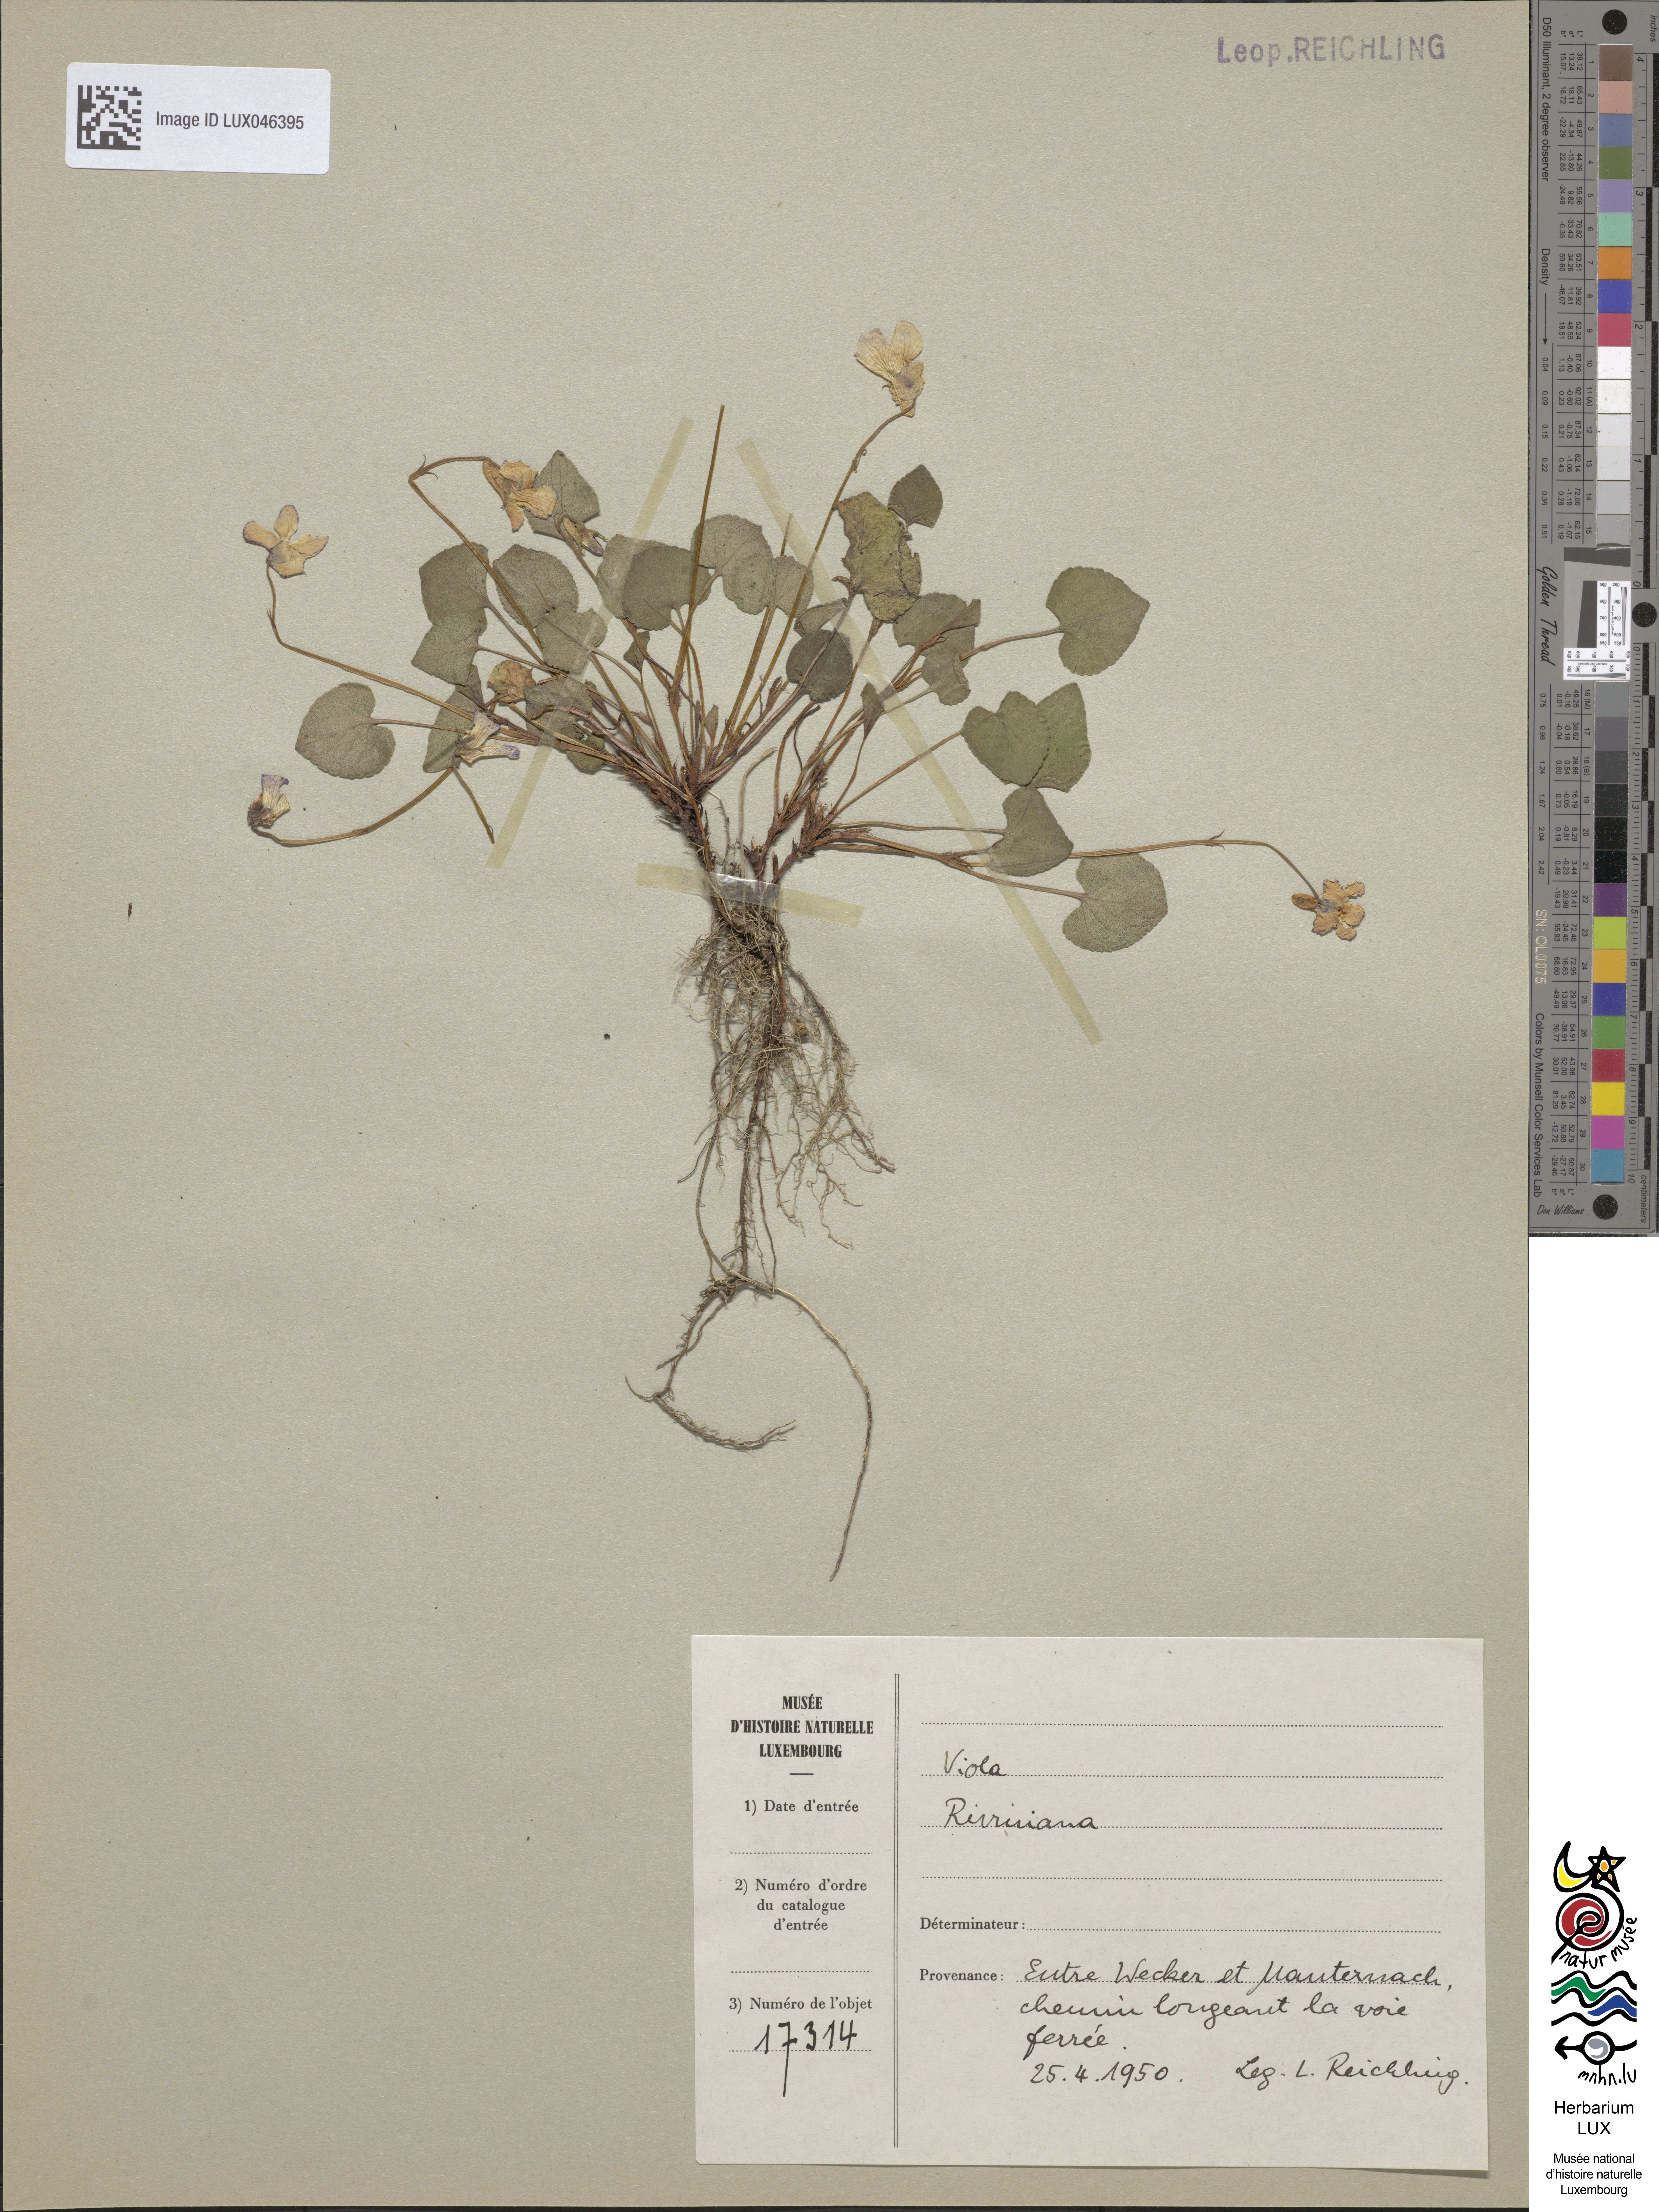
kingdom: Plantae
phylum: Tracheophyta
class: Magnoliopsida
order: Malpighiales
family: Violaceae
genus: Viola
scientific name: Viola riviniana
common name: Common dog-violet
